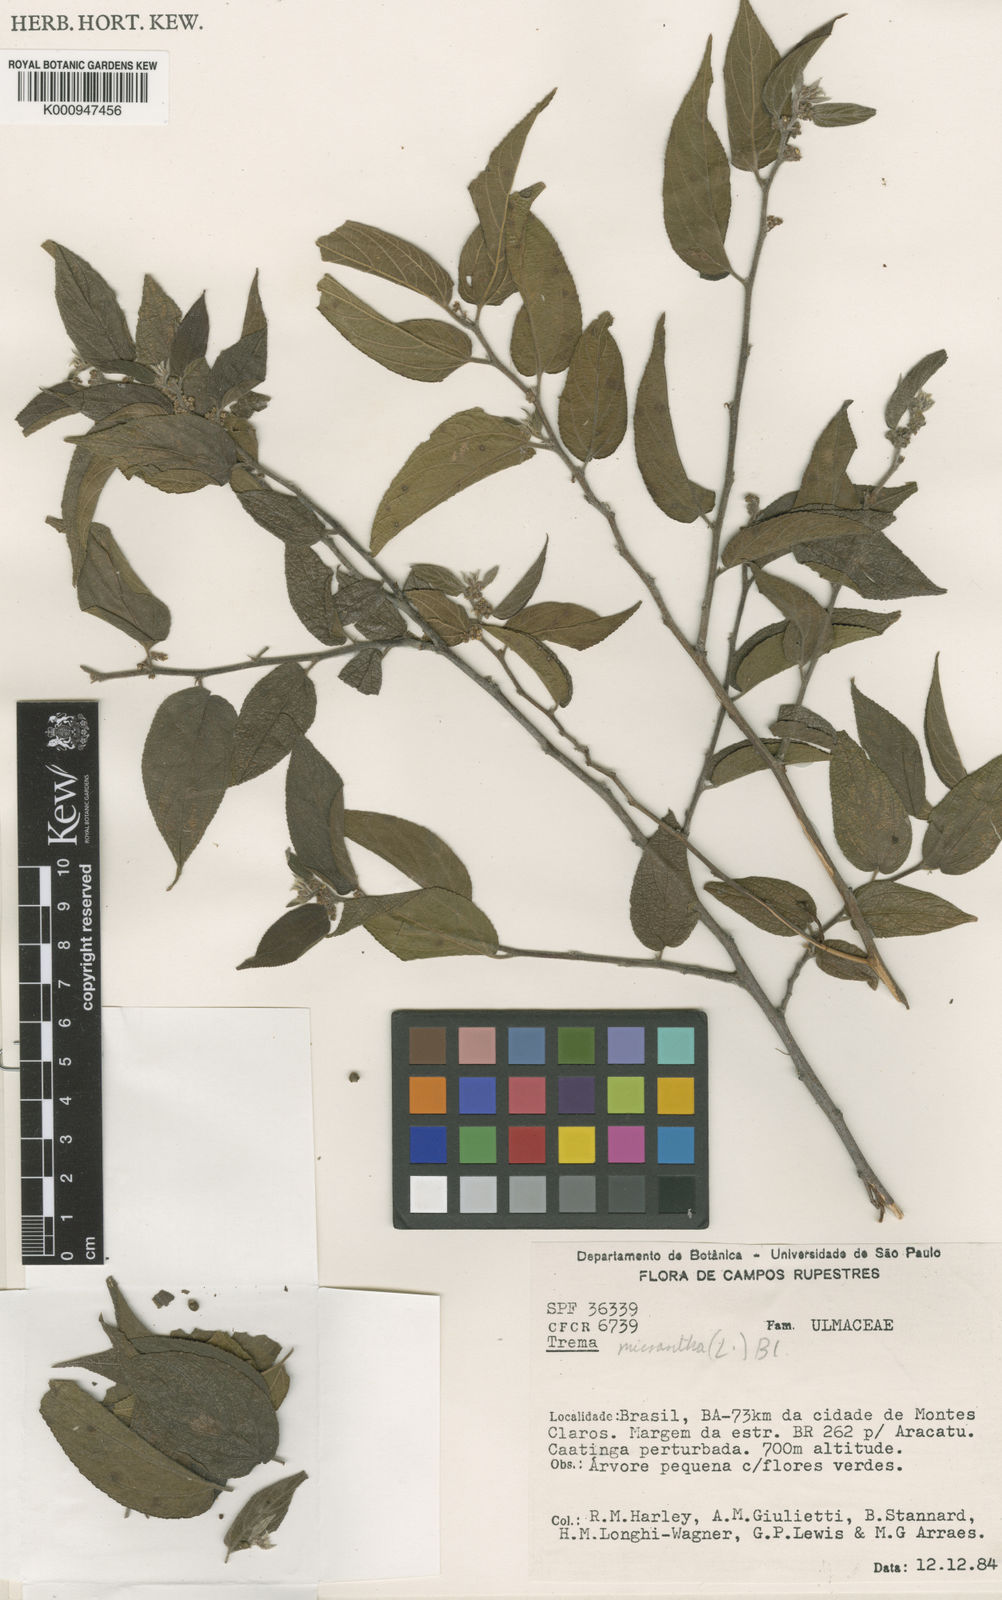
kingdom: Plantae
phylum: Tracheophyta
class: Magnoliopsida
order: Rosales
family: Cannabaceae
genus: Trema
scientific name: Trema micranthum
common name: Jamaican nettletree
